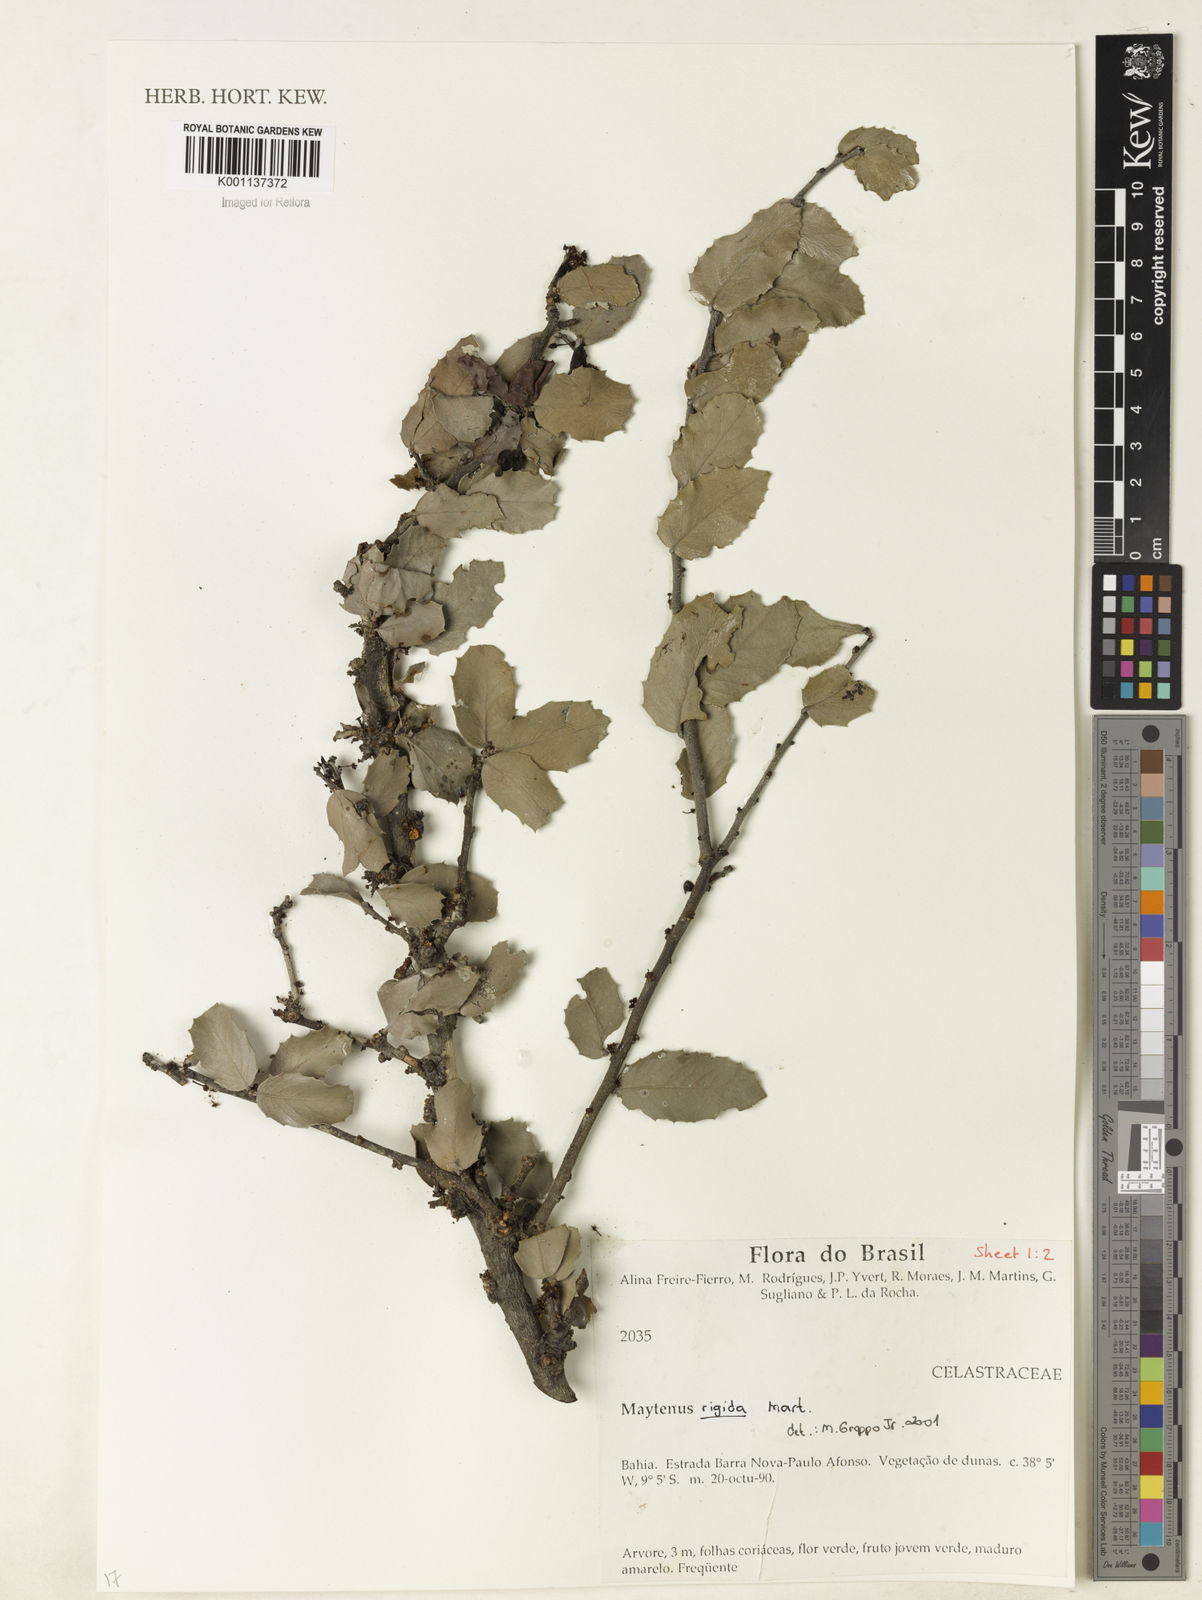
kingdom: Plantae
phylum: Tracheophyta
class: Magnoliopsida
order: Celastrales
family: Celastraceae
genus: Monteverdia
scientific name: Monteverdia rigida
